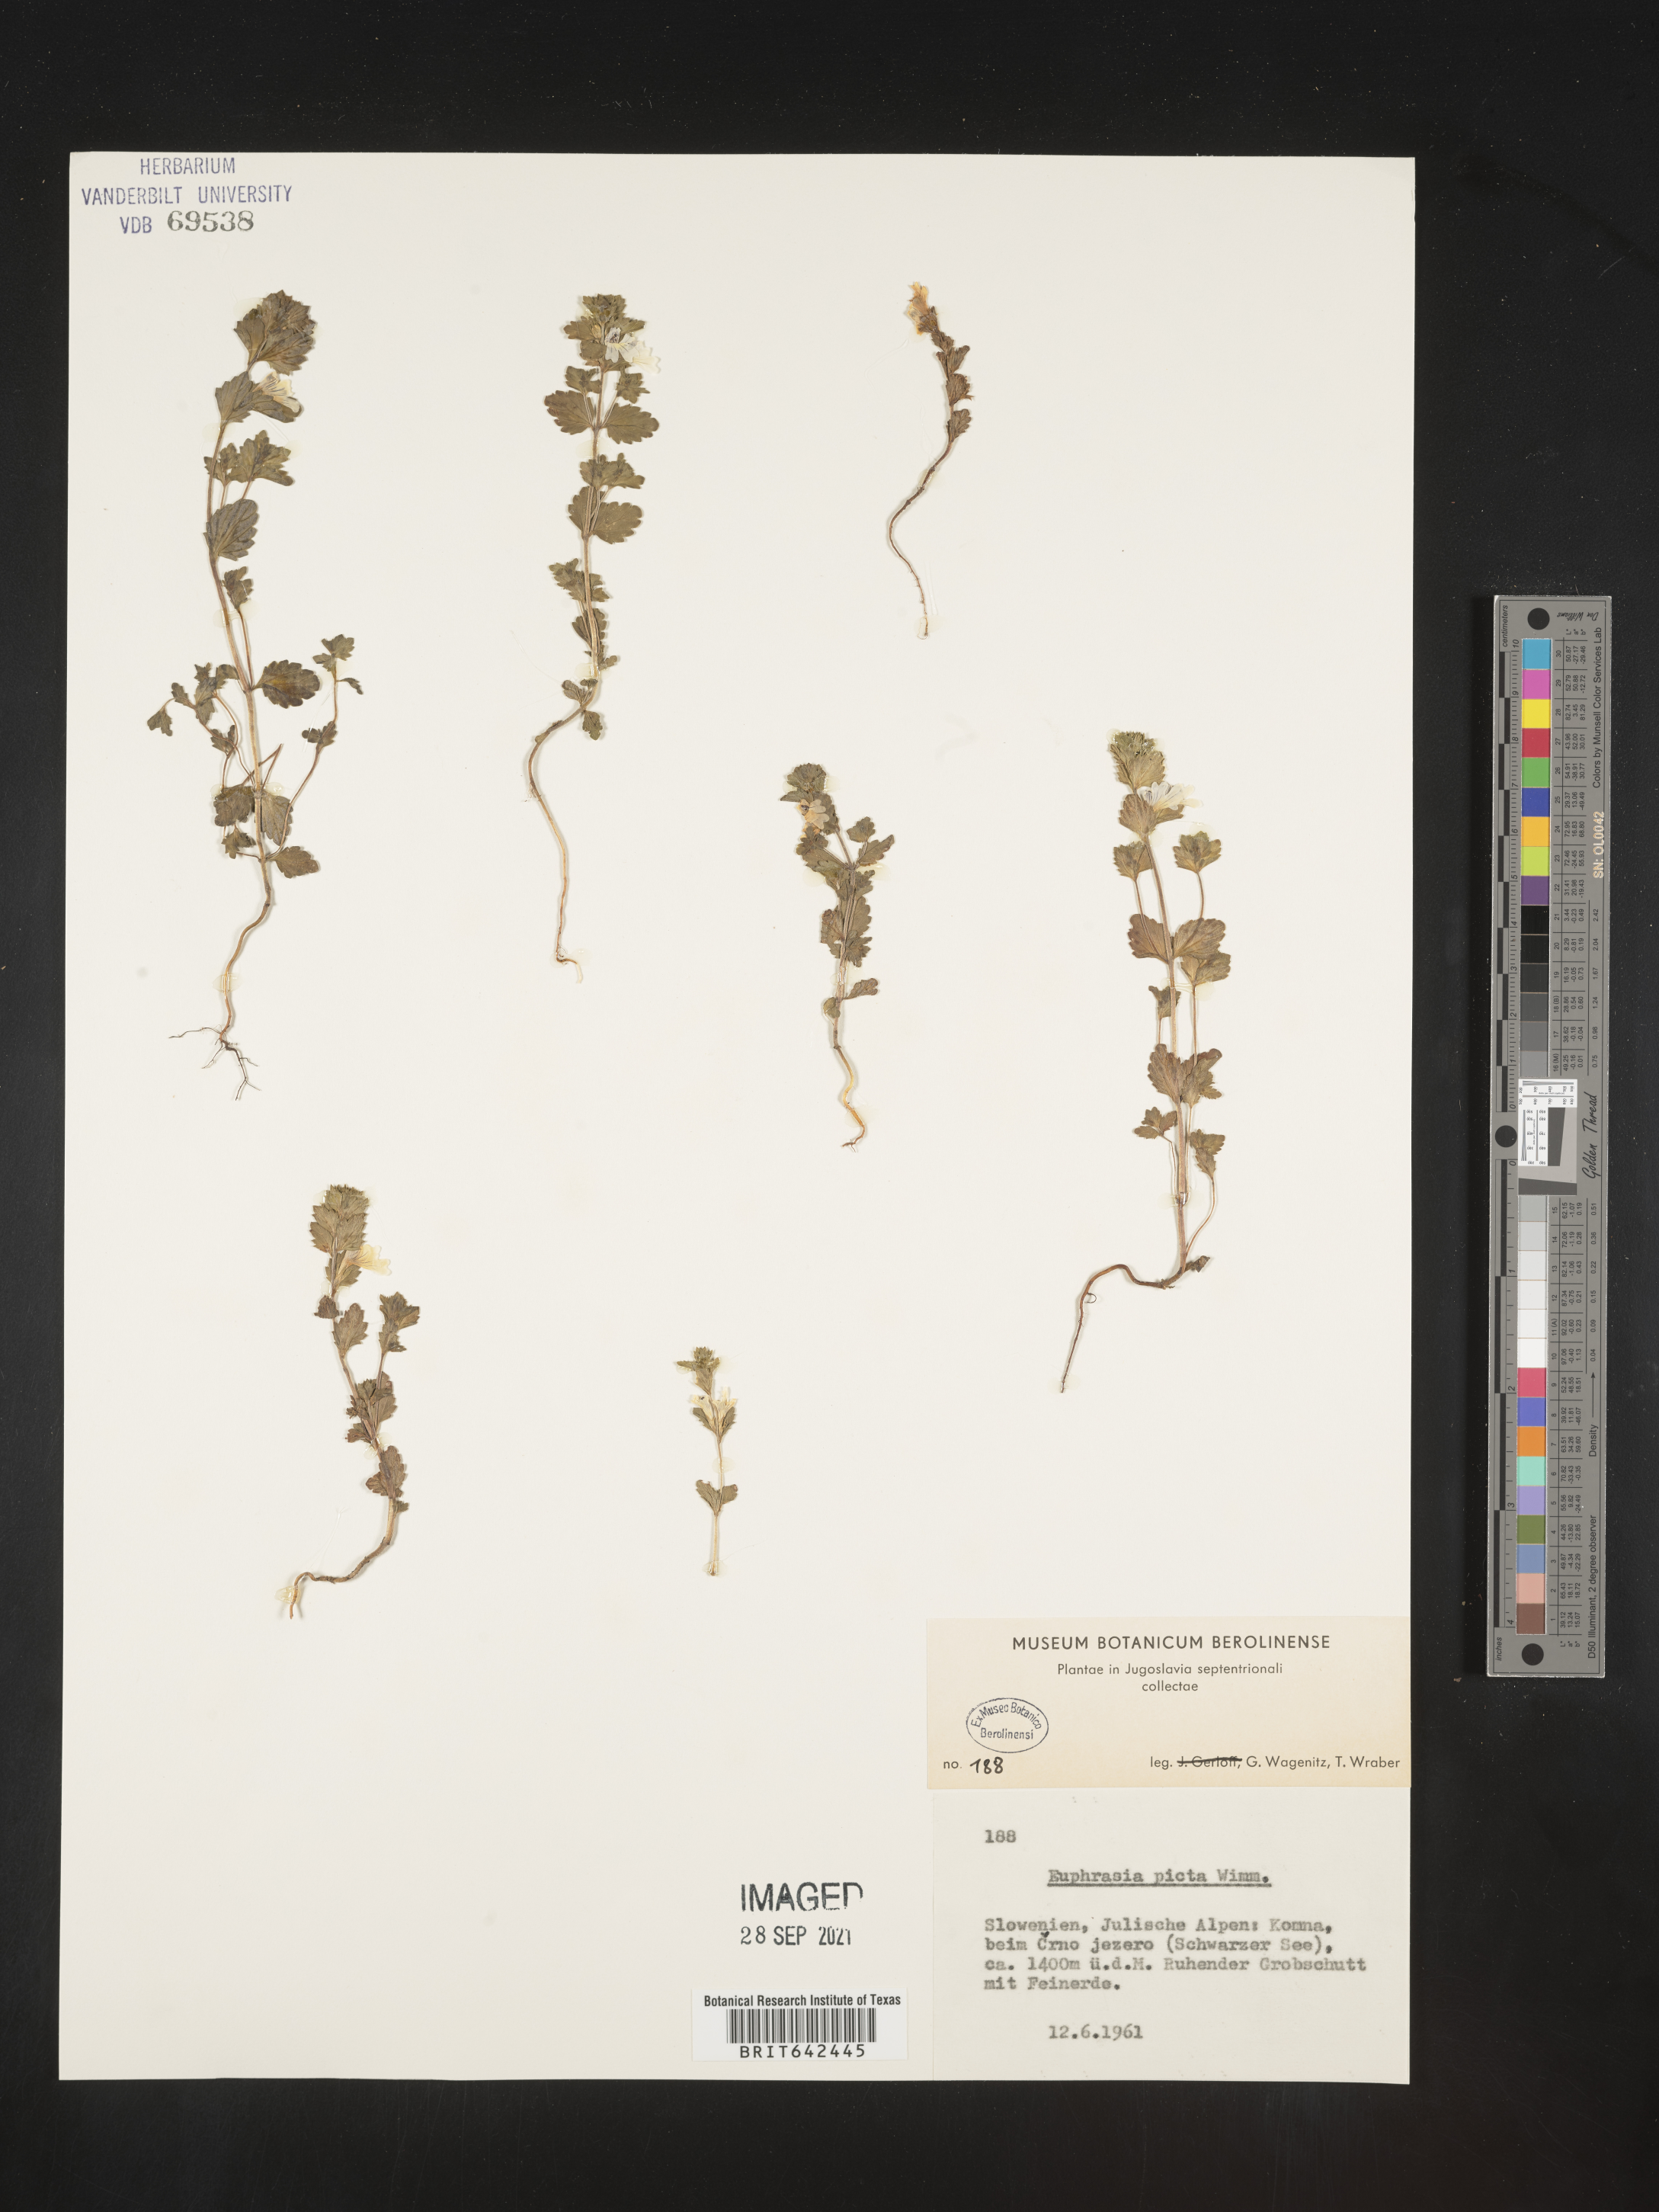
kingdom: Plantae
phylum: Tracheophyta
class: Magnoliopsida
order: Lamiales
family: Orobanchaceae
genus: Euphrasia
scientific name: Euphrasia
